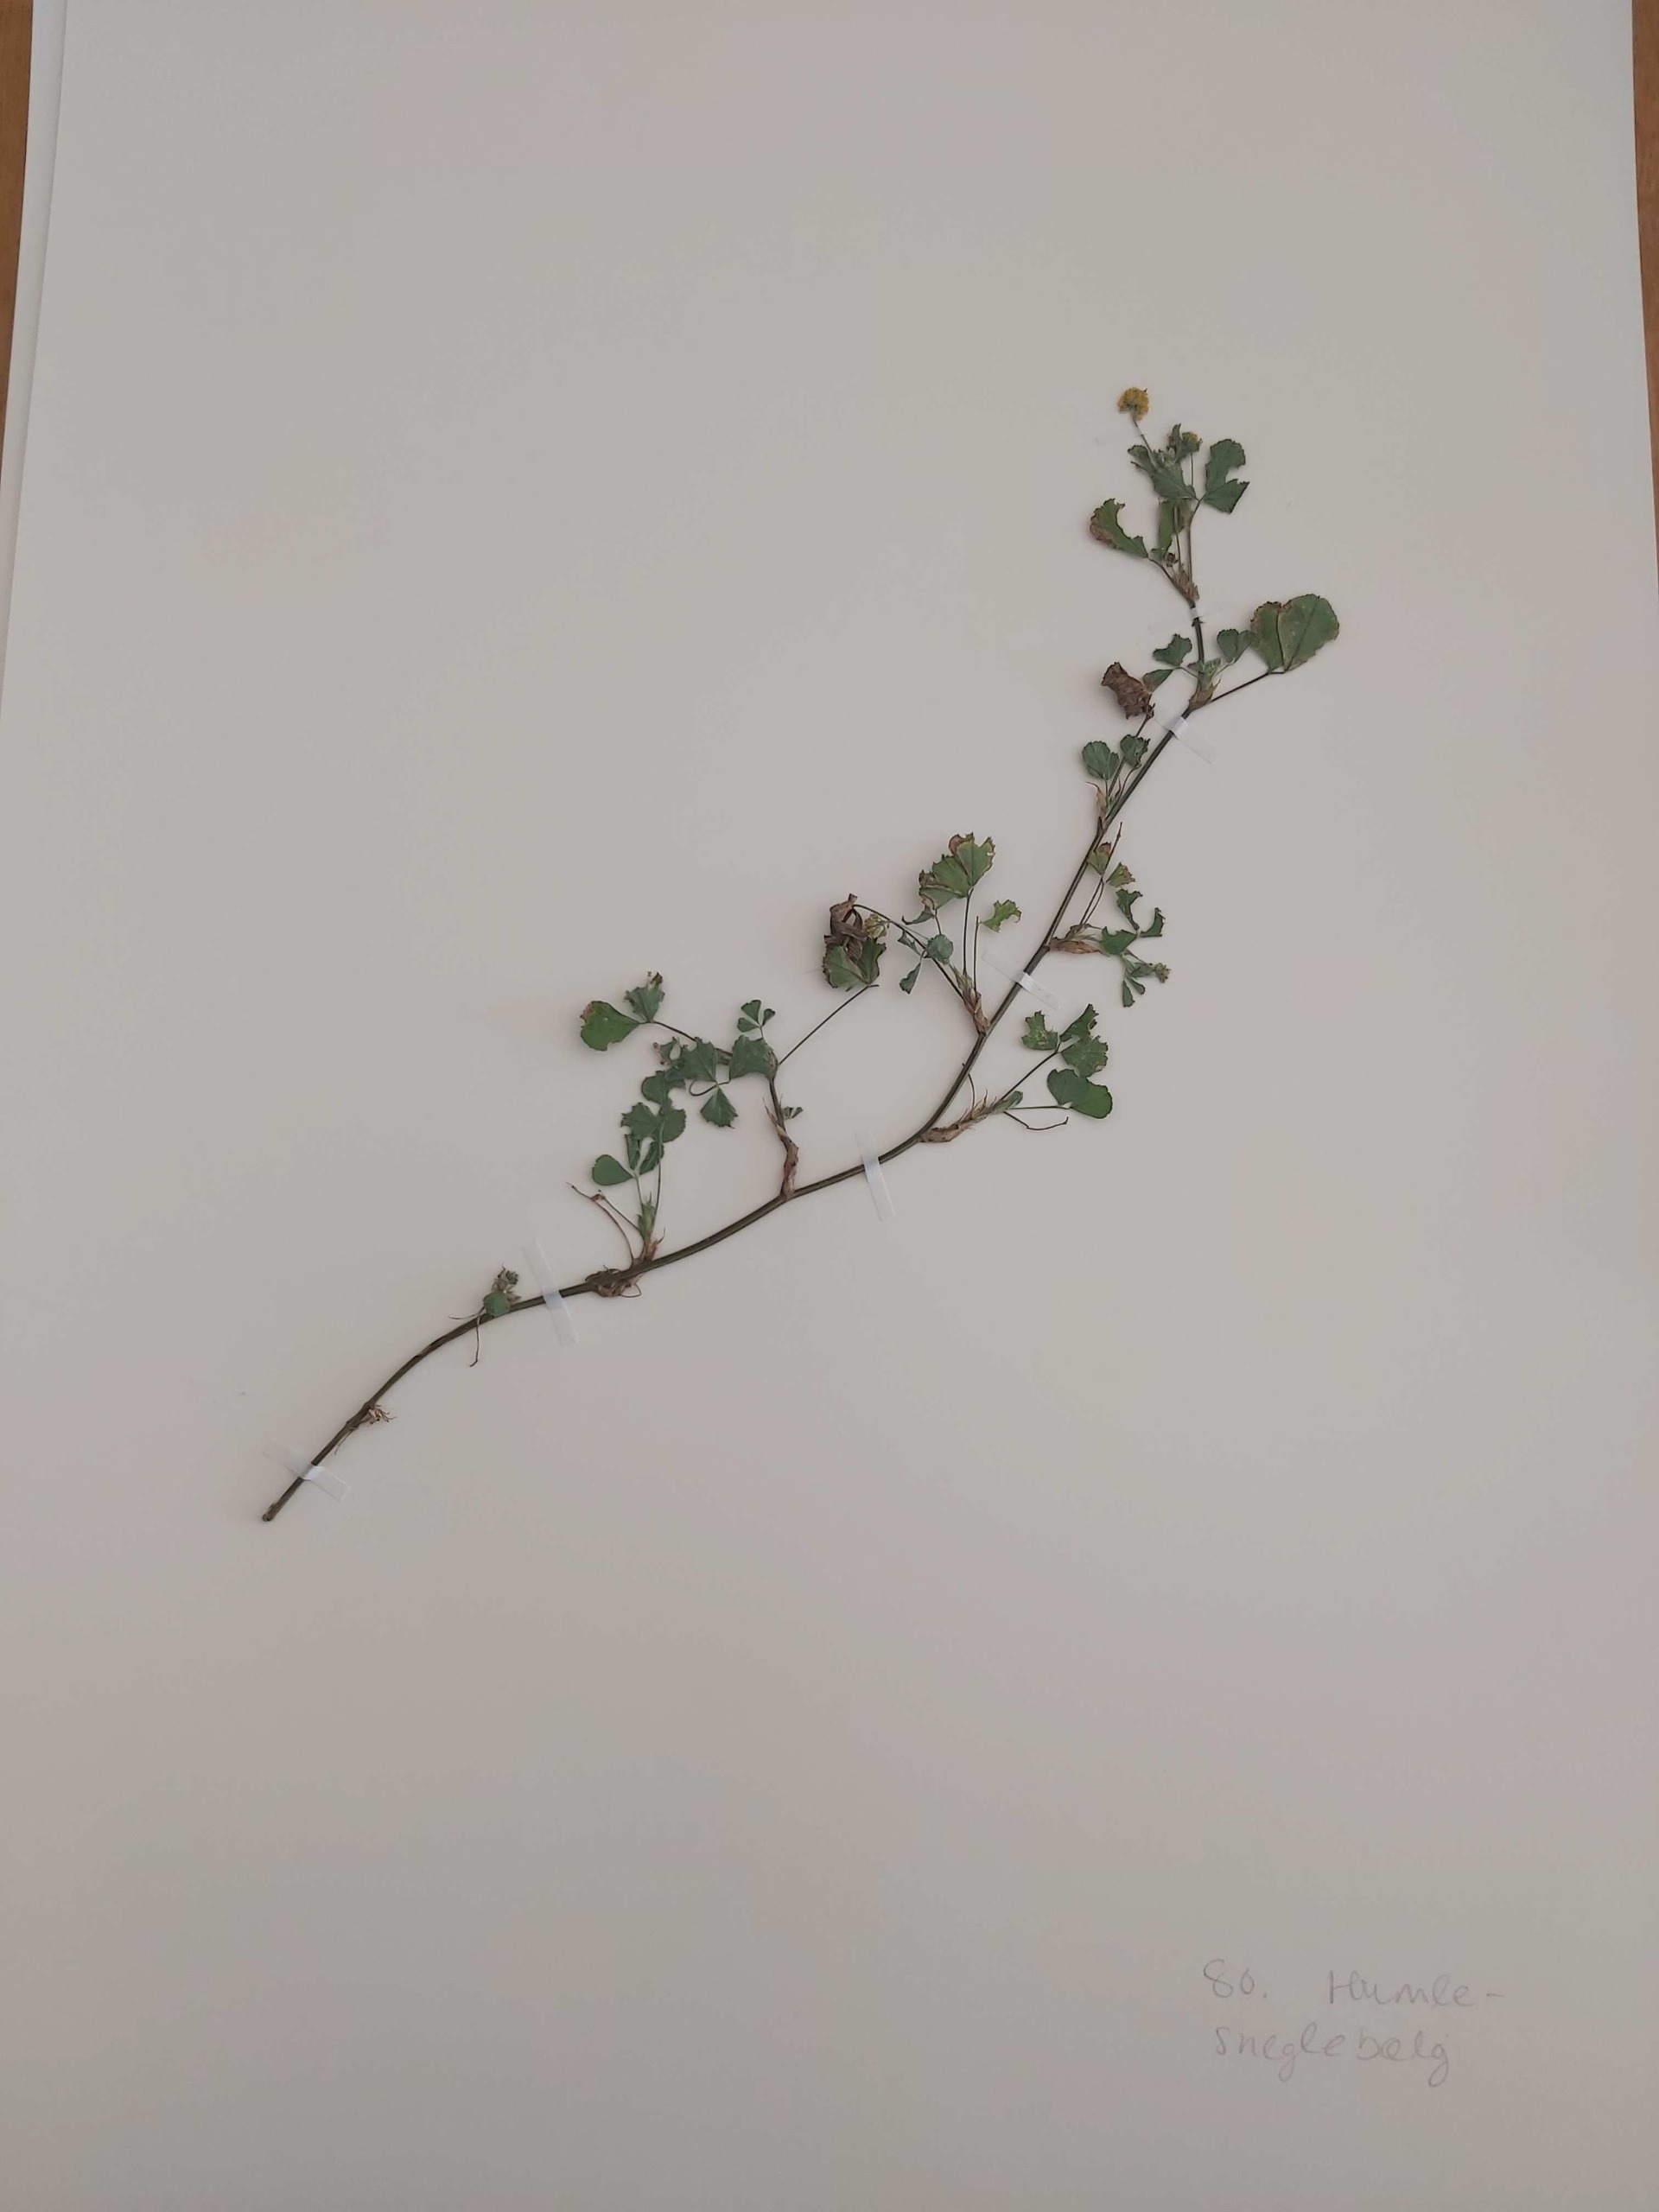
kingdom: Plantae
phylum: Tracheophyta
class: Magnoliopsida
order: Fabales
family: Fabaceae
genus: Medicago
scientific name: Medicago lupulina
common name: Humle-sneglebælg
